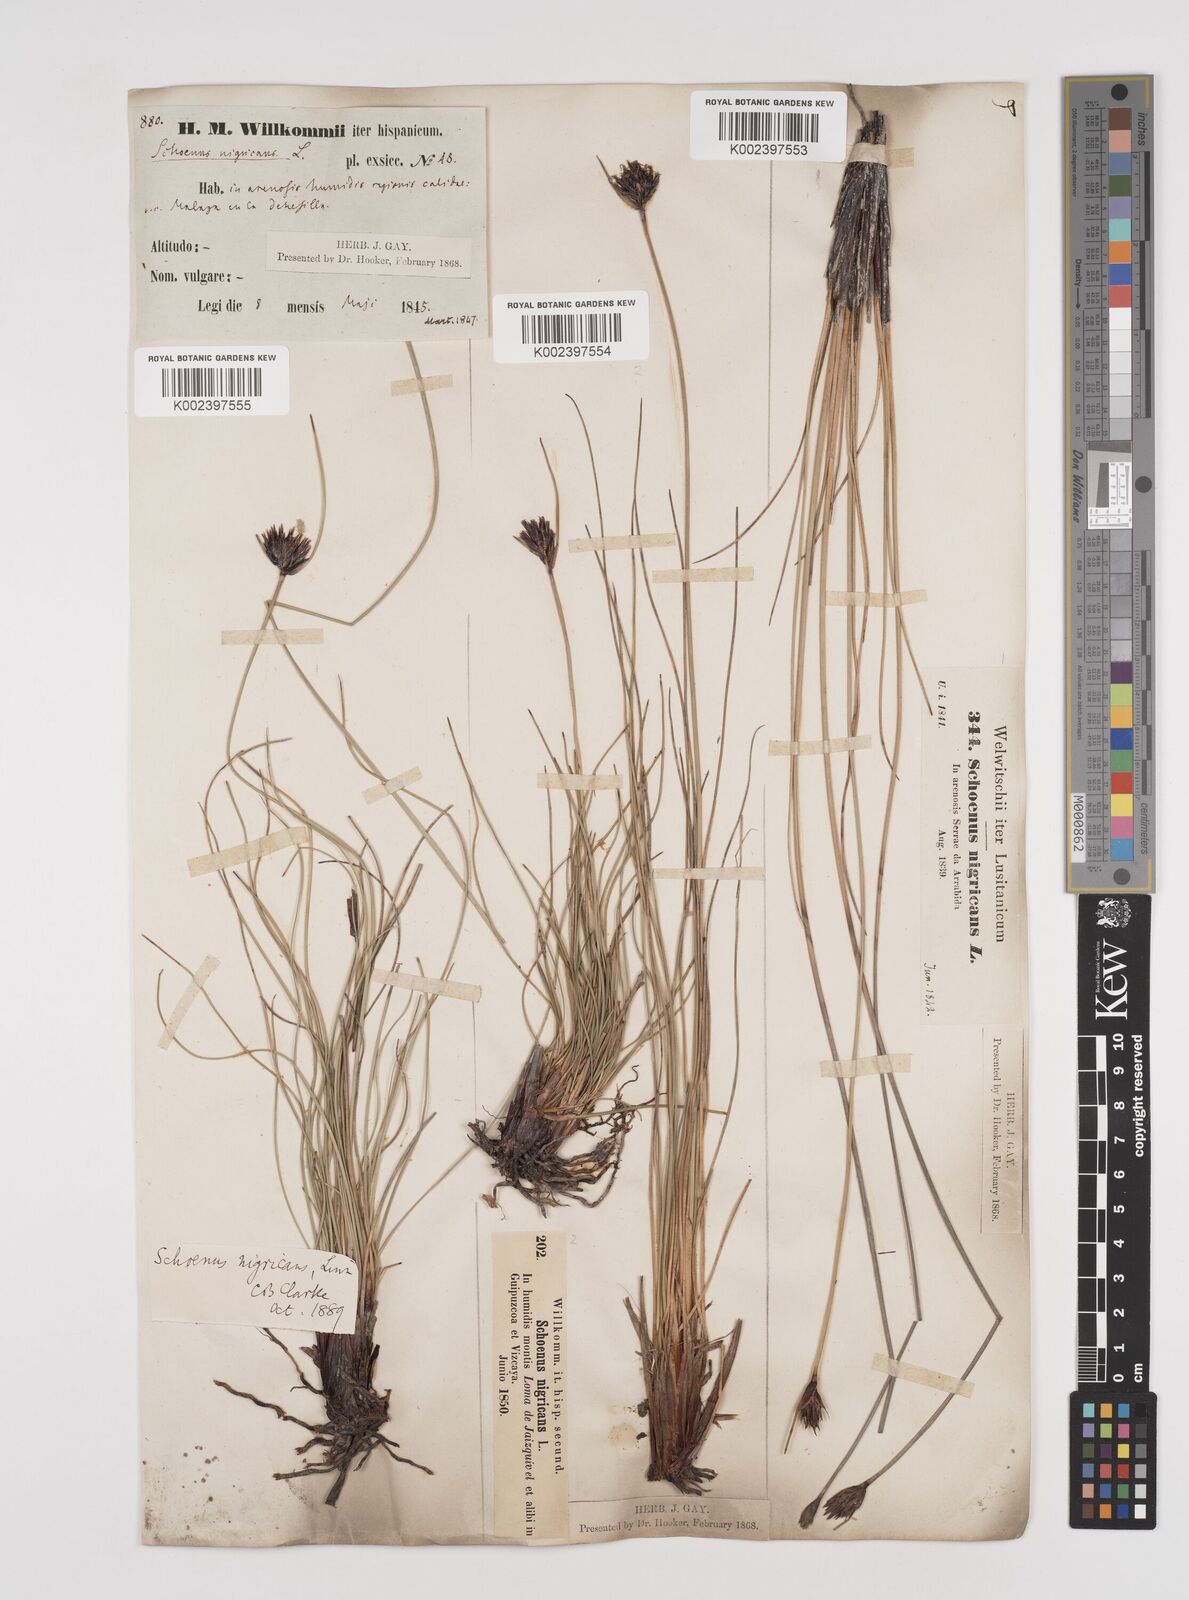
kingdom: Plantae
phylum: Tracheophyta
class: Liliopsida
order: Poales
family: Cyperaceae
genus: Schoenus
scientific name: Schoenus nigricans
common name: Black bog-rush
